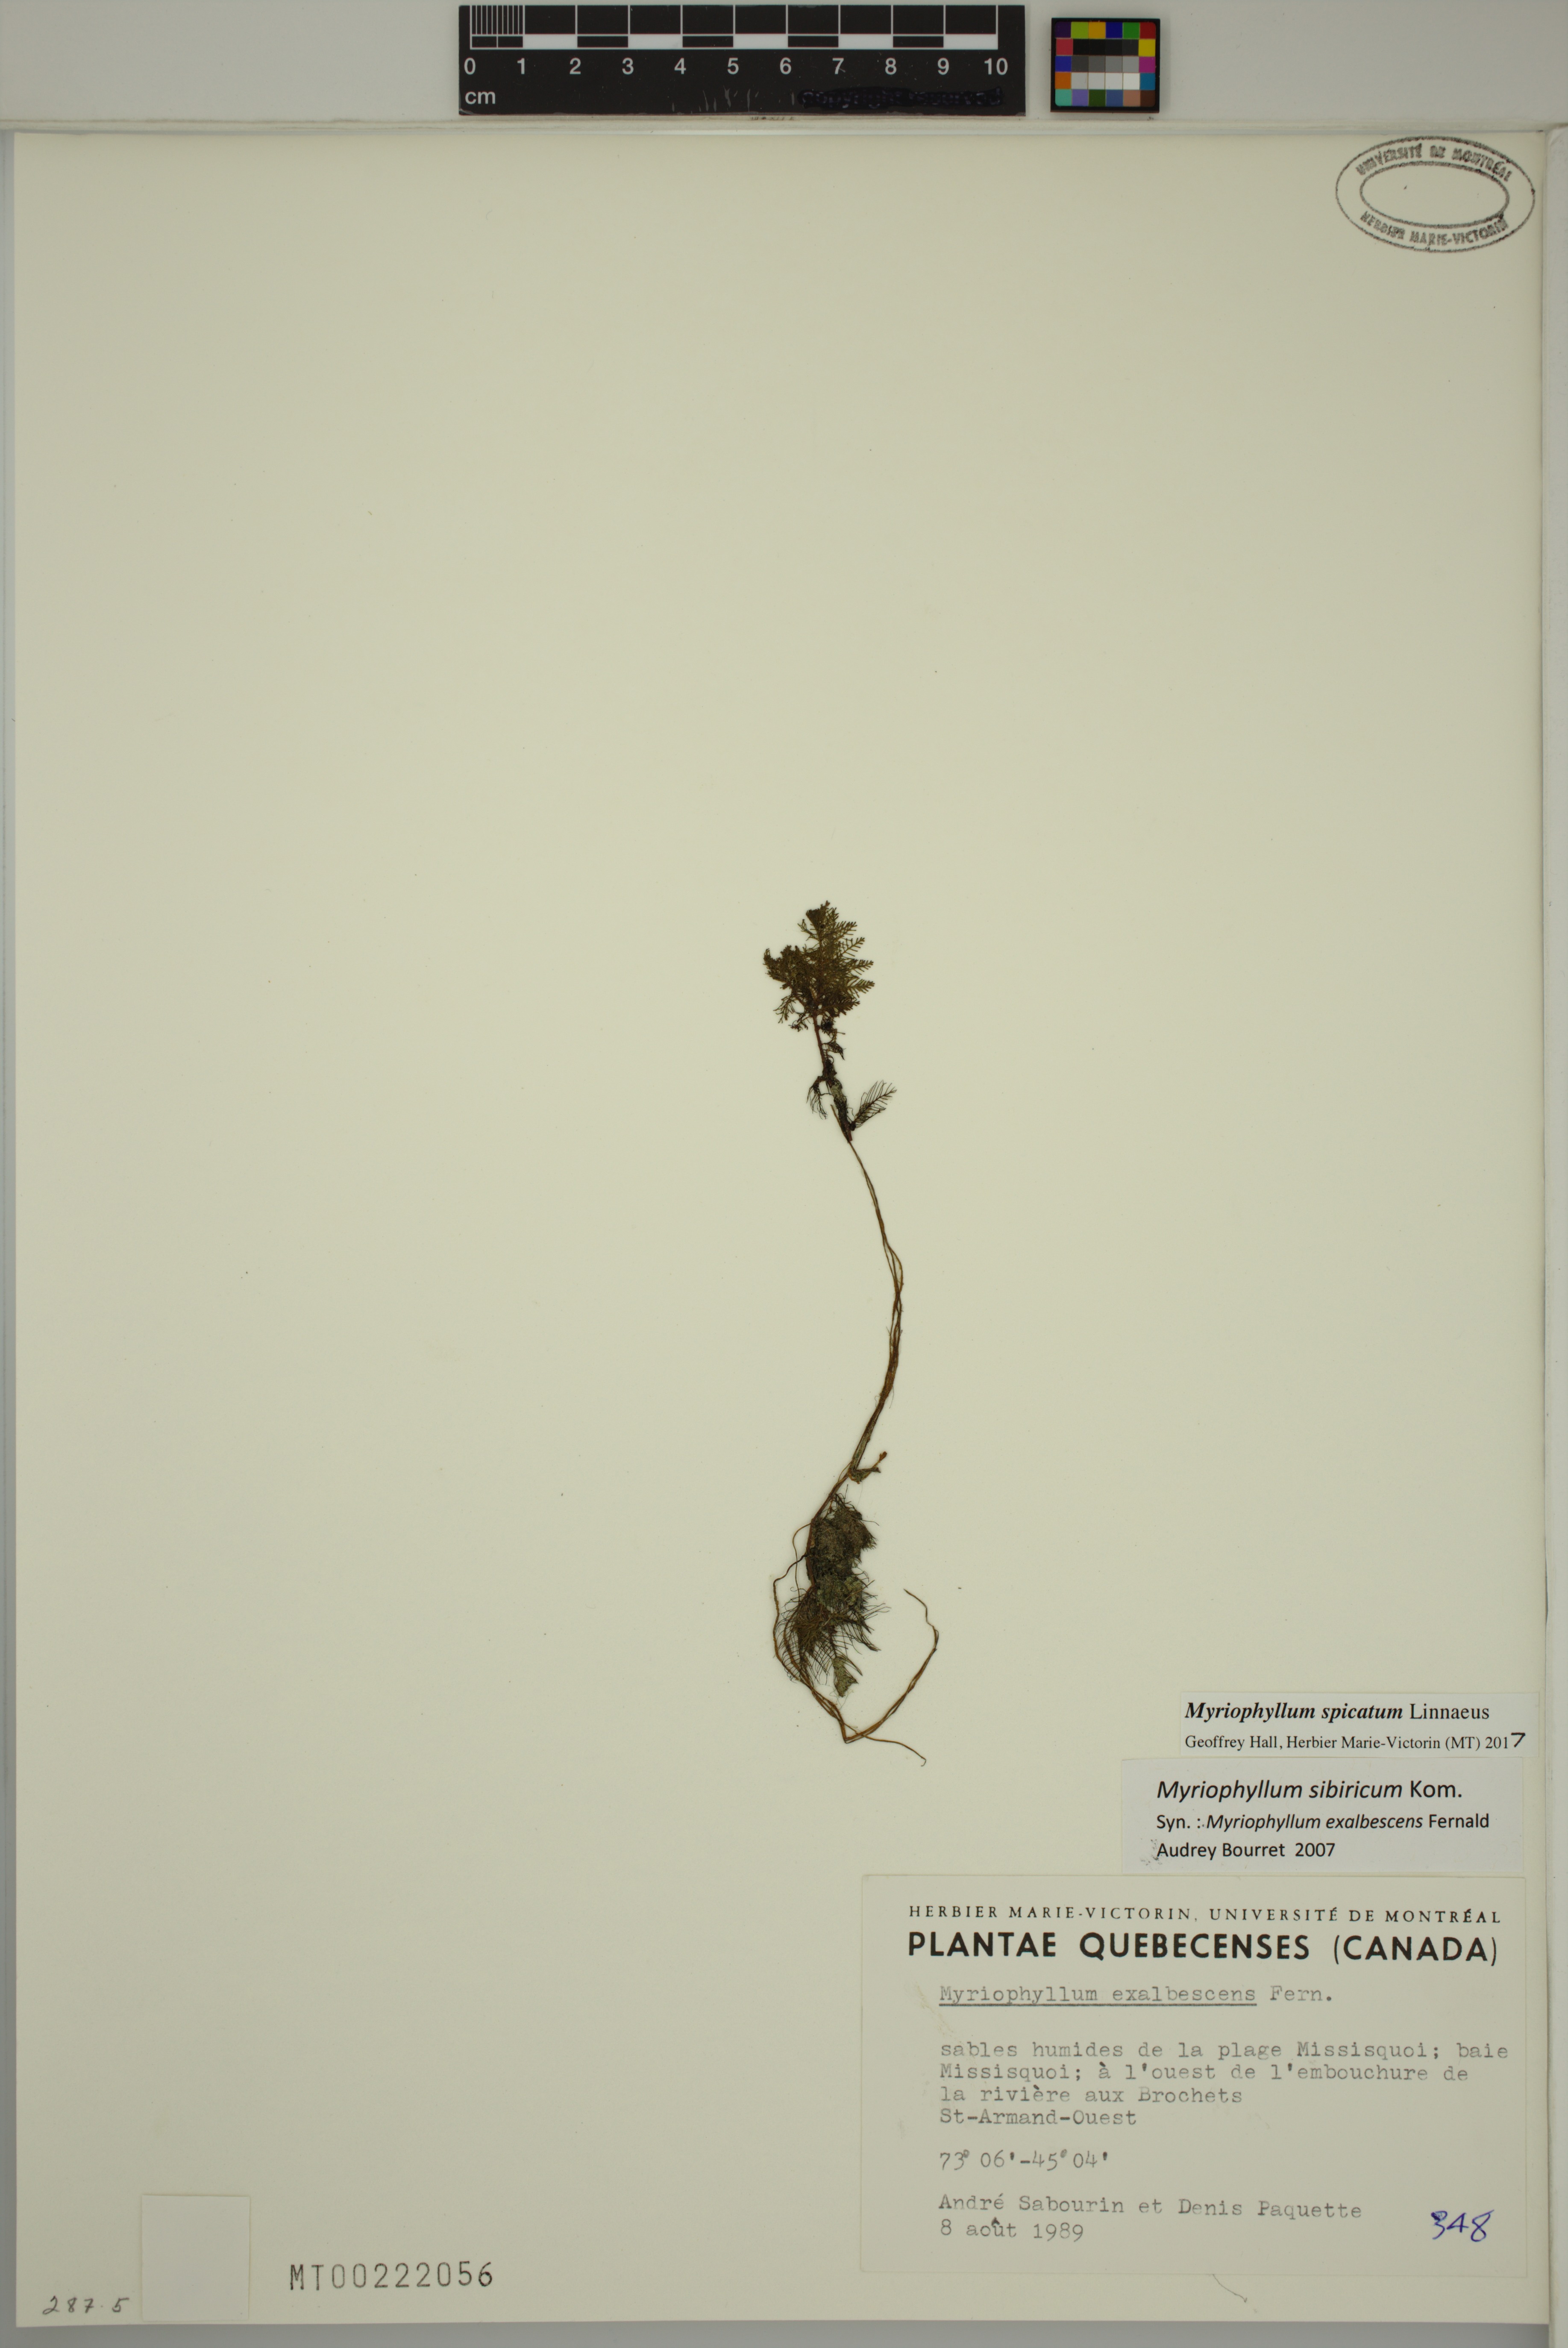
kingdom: Plantae
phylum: Tracheophyta
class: Magnoliopsida
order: Saxifragales
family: Haloragaceae
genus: Myriophyllum
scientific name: Myriophyllum spicatum
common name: Spiked water-milfoil
